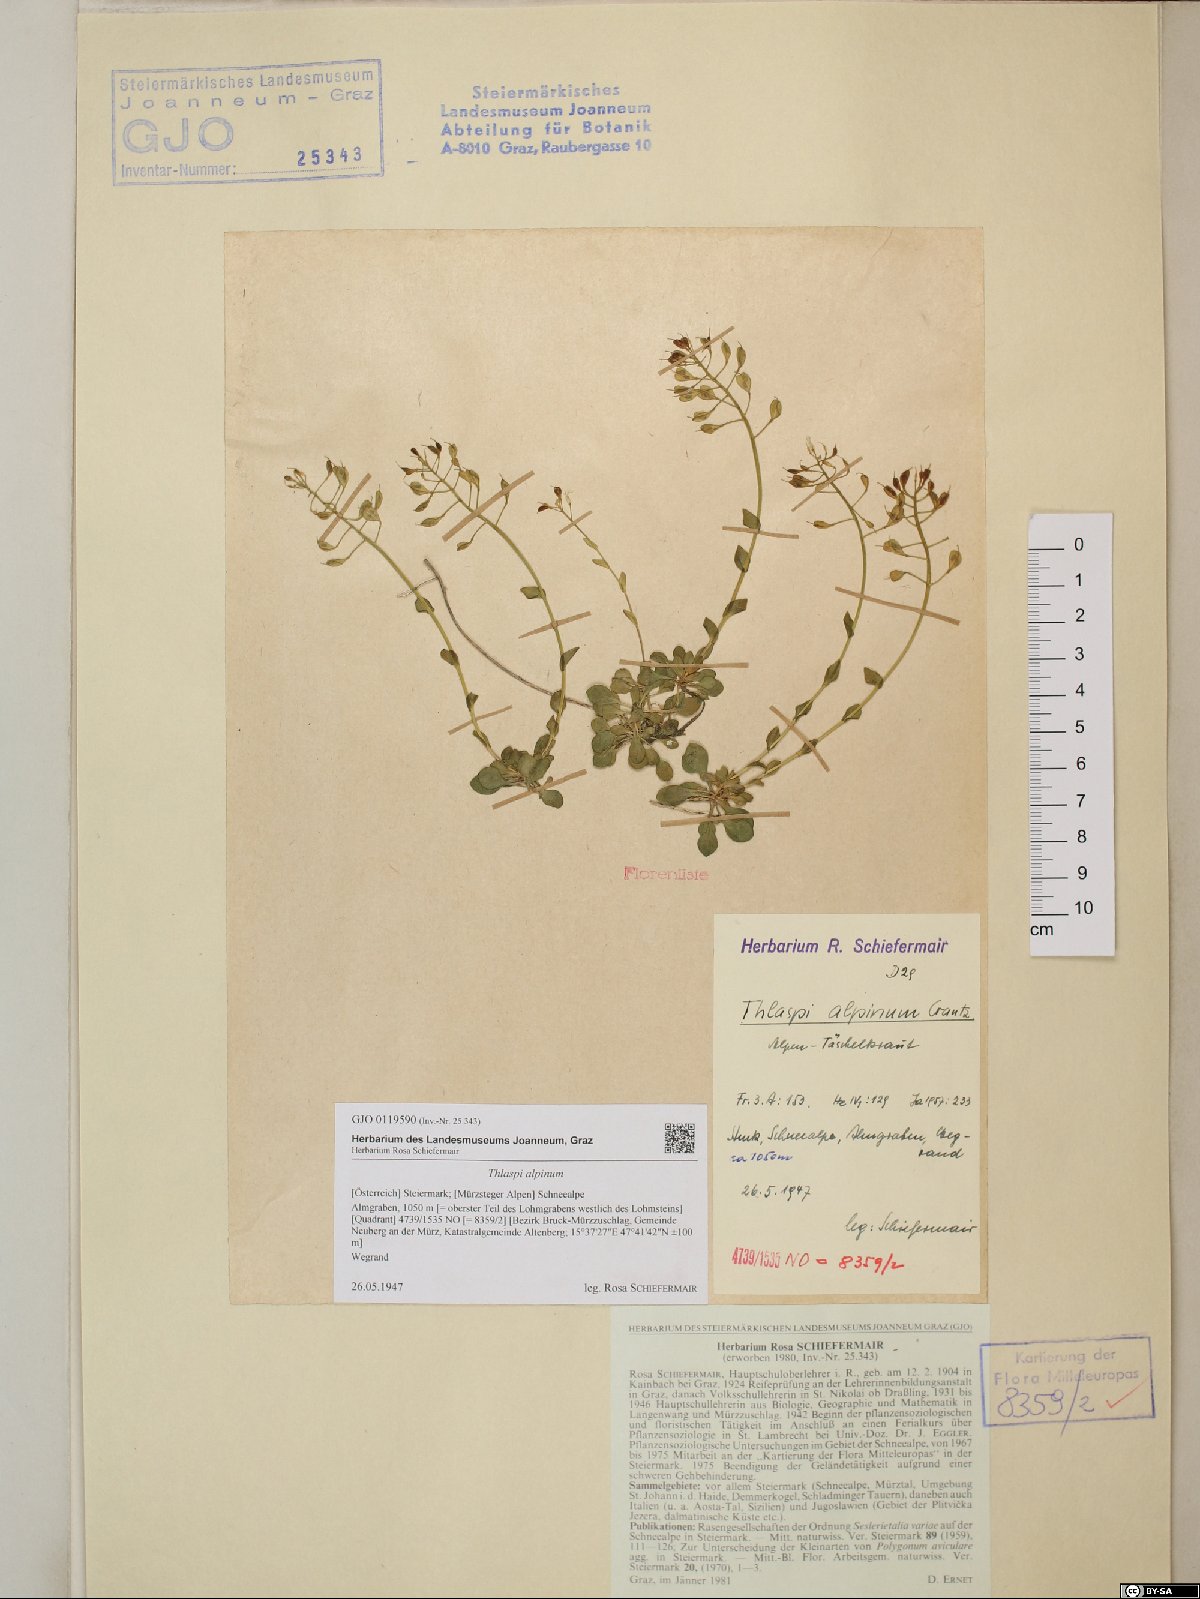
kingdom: Plantae
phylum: Tracheophyta
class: Magnoliopsida
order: Brassicales
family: Brassicaceae
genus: Noccaea
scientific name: Noccaea alpestris
